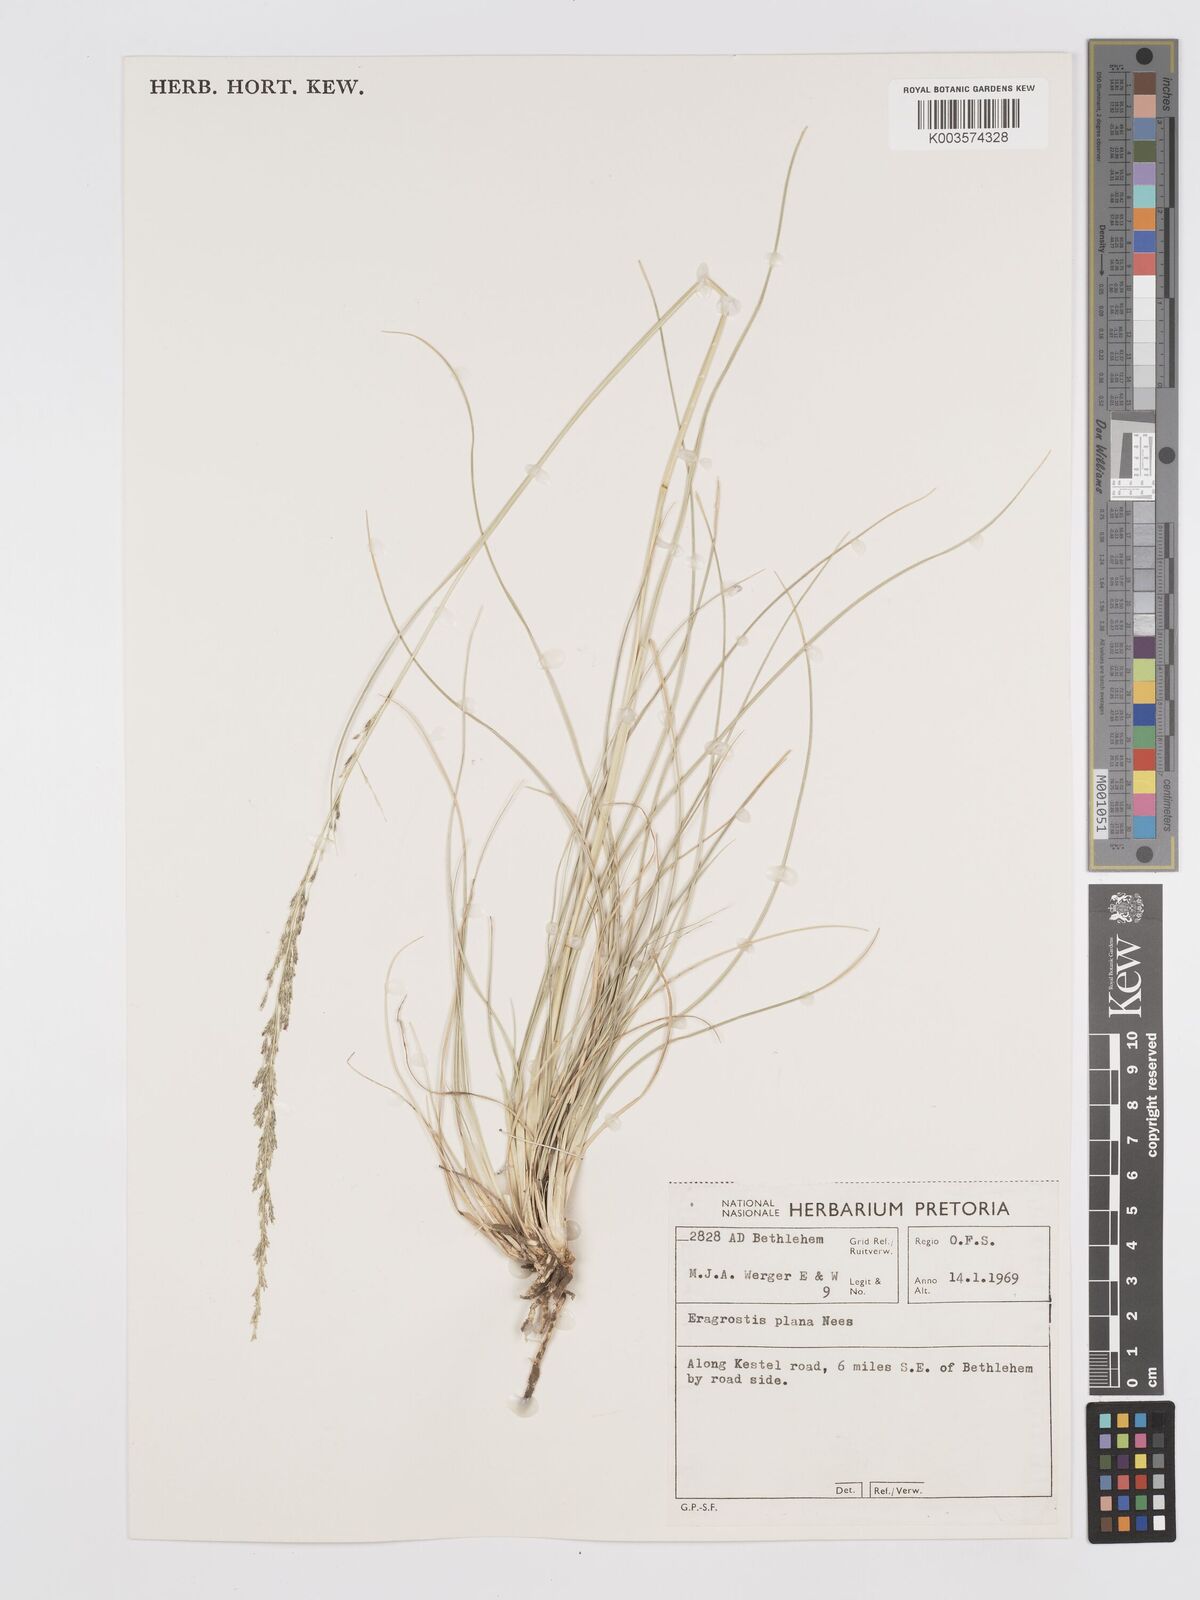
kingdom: Plantae
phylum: Tracheophyta
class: Liliopsida
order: Poales
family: Poaceae
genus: Eragrostis
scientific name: Eragrostis plana
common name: South african lovegrass
